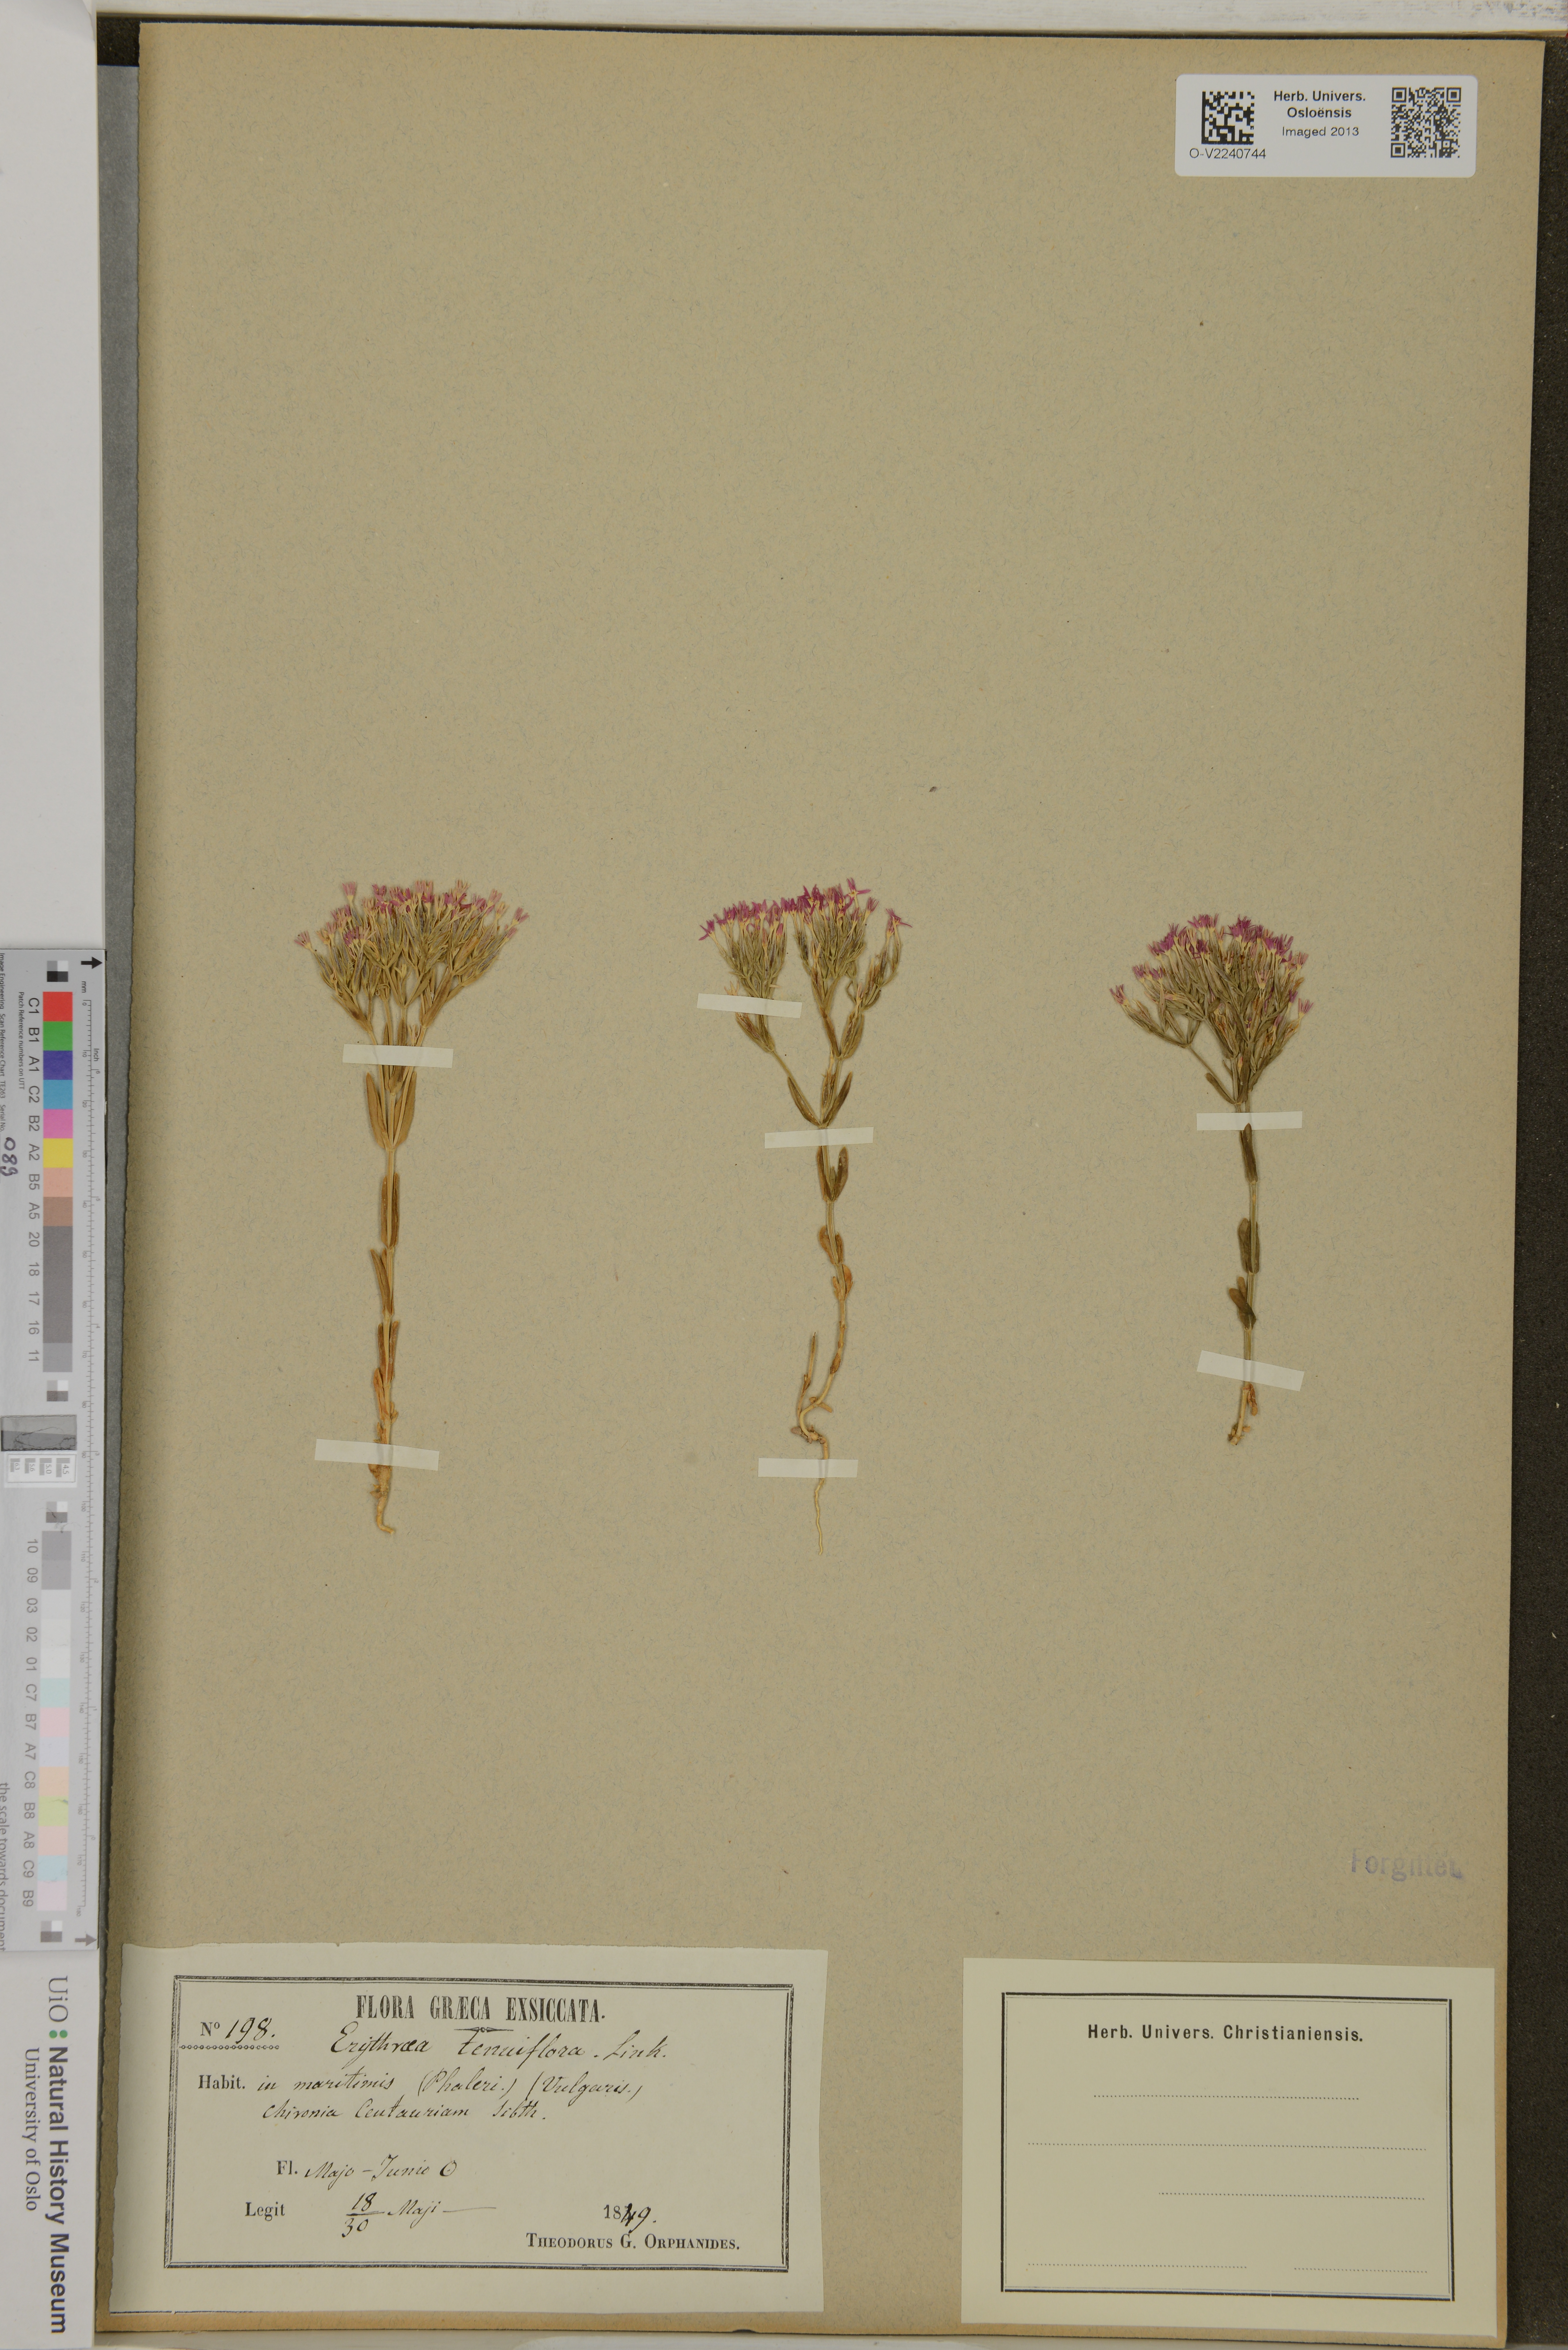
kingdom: Plantae
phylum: Tracheophyta
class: Magnoliopsida
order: Gentianales
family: Gentianaceae
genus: Centaurium
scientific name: Centaurium tenuiflorum
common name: Slender centaury
